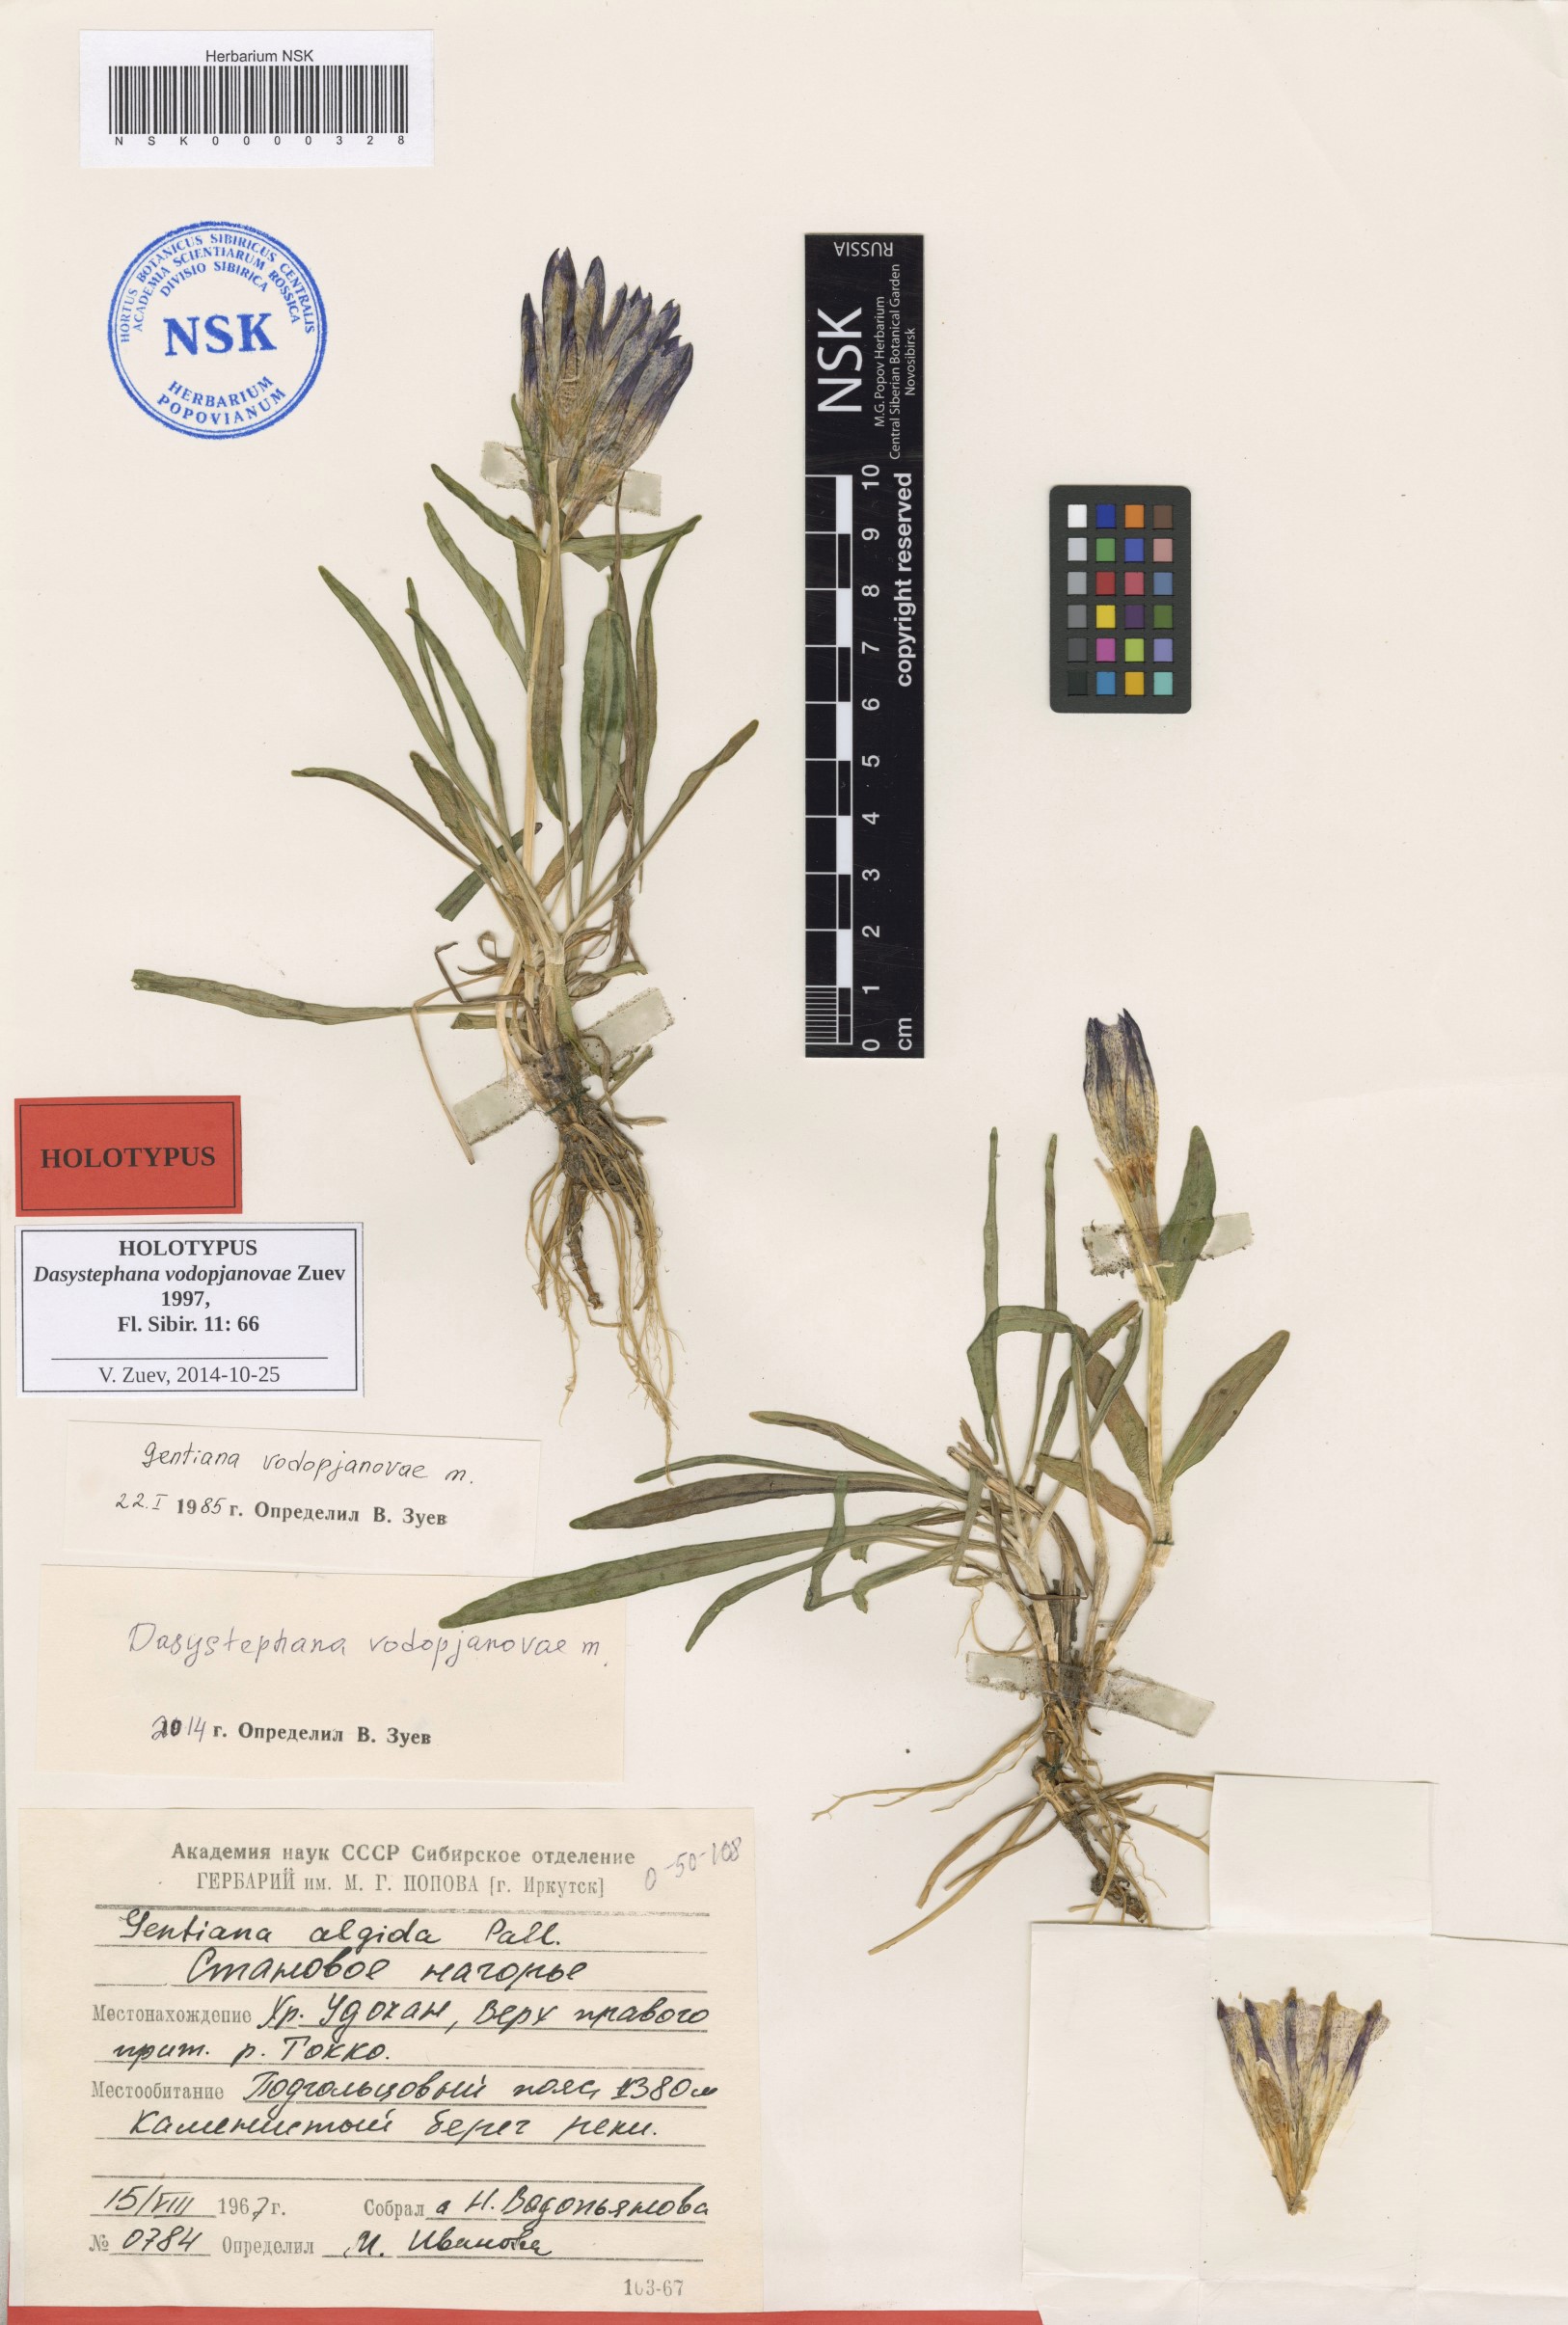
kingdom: Plantae
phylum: Tracheophyta
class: Magnoliopsida
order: Gentianales
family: Gentianaceae
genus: Gentiana
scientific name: Gentiana Dasystephana vodopjanovae
